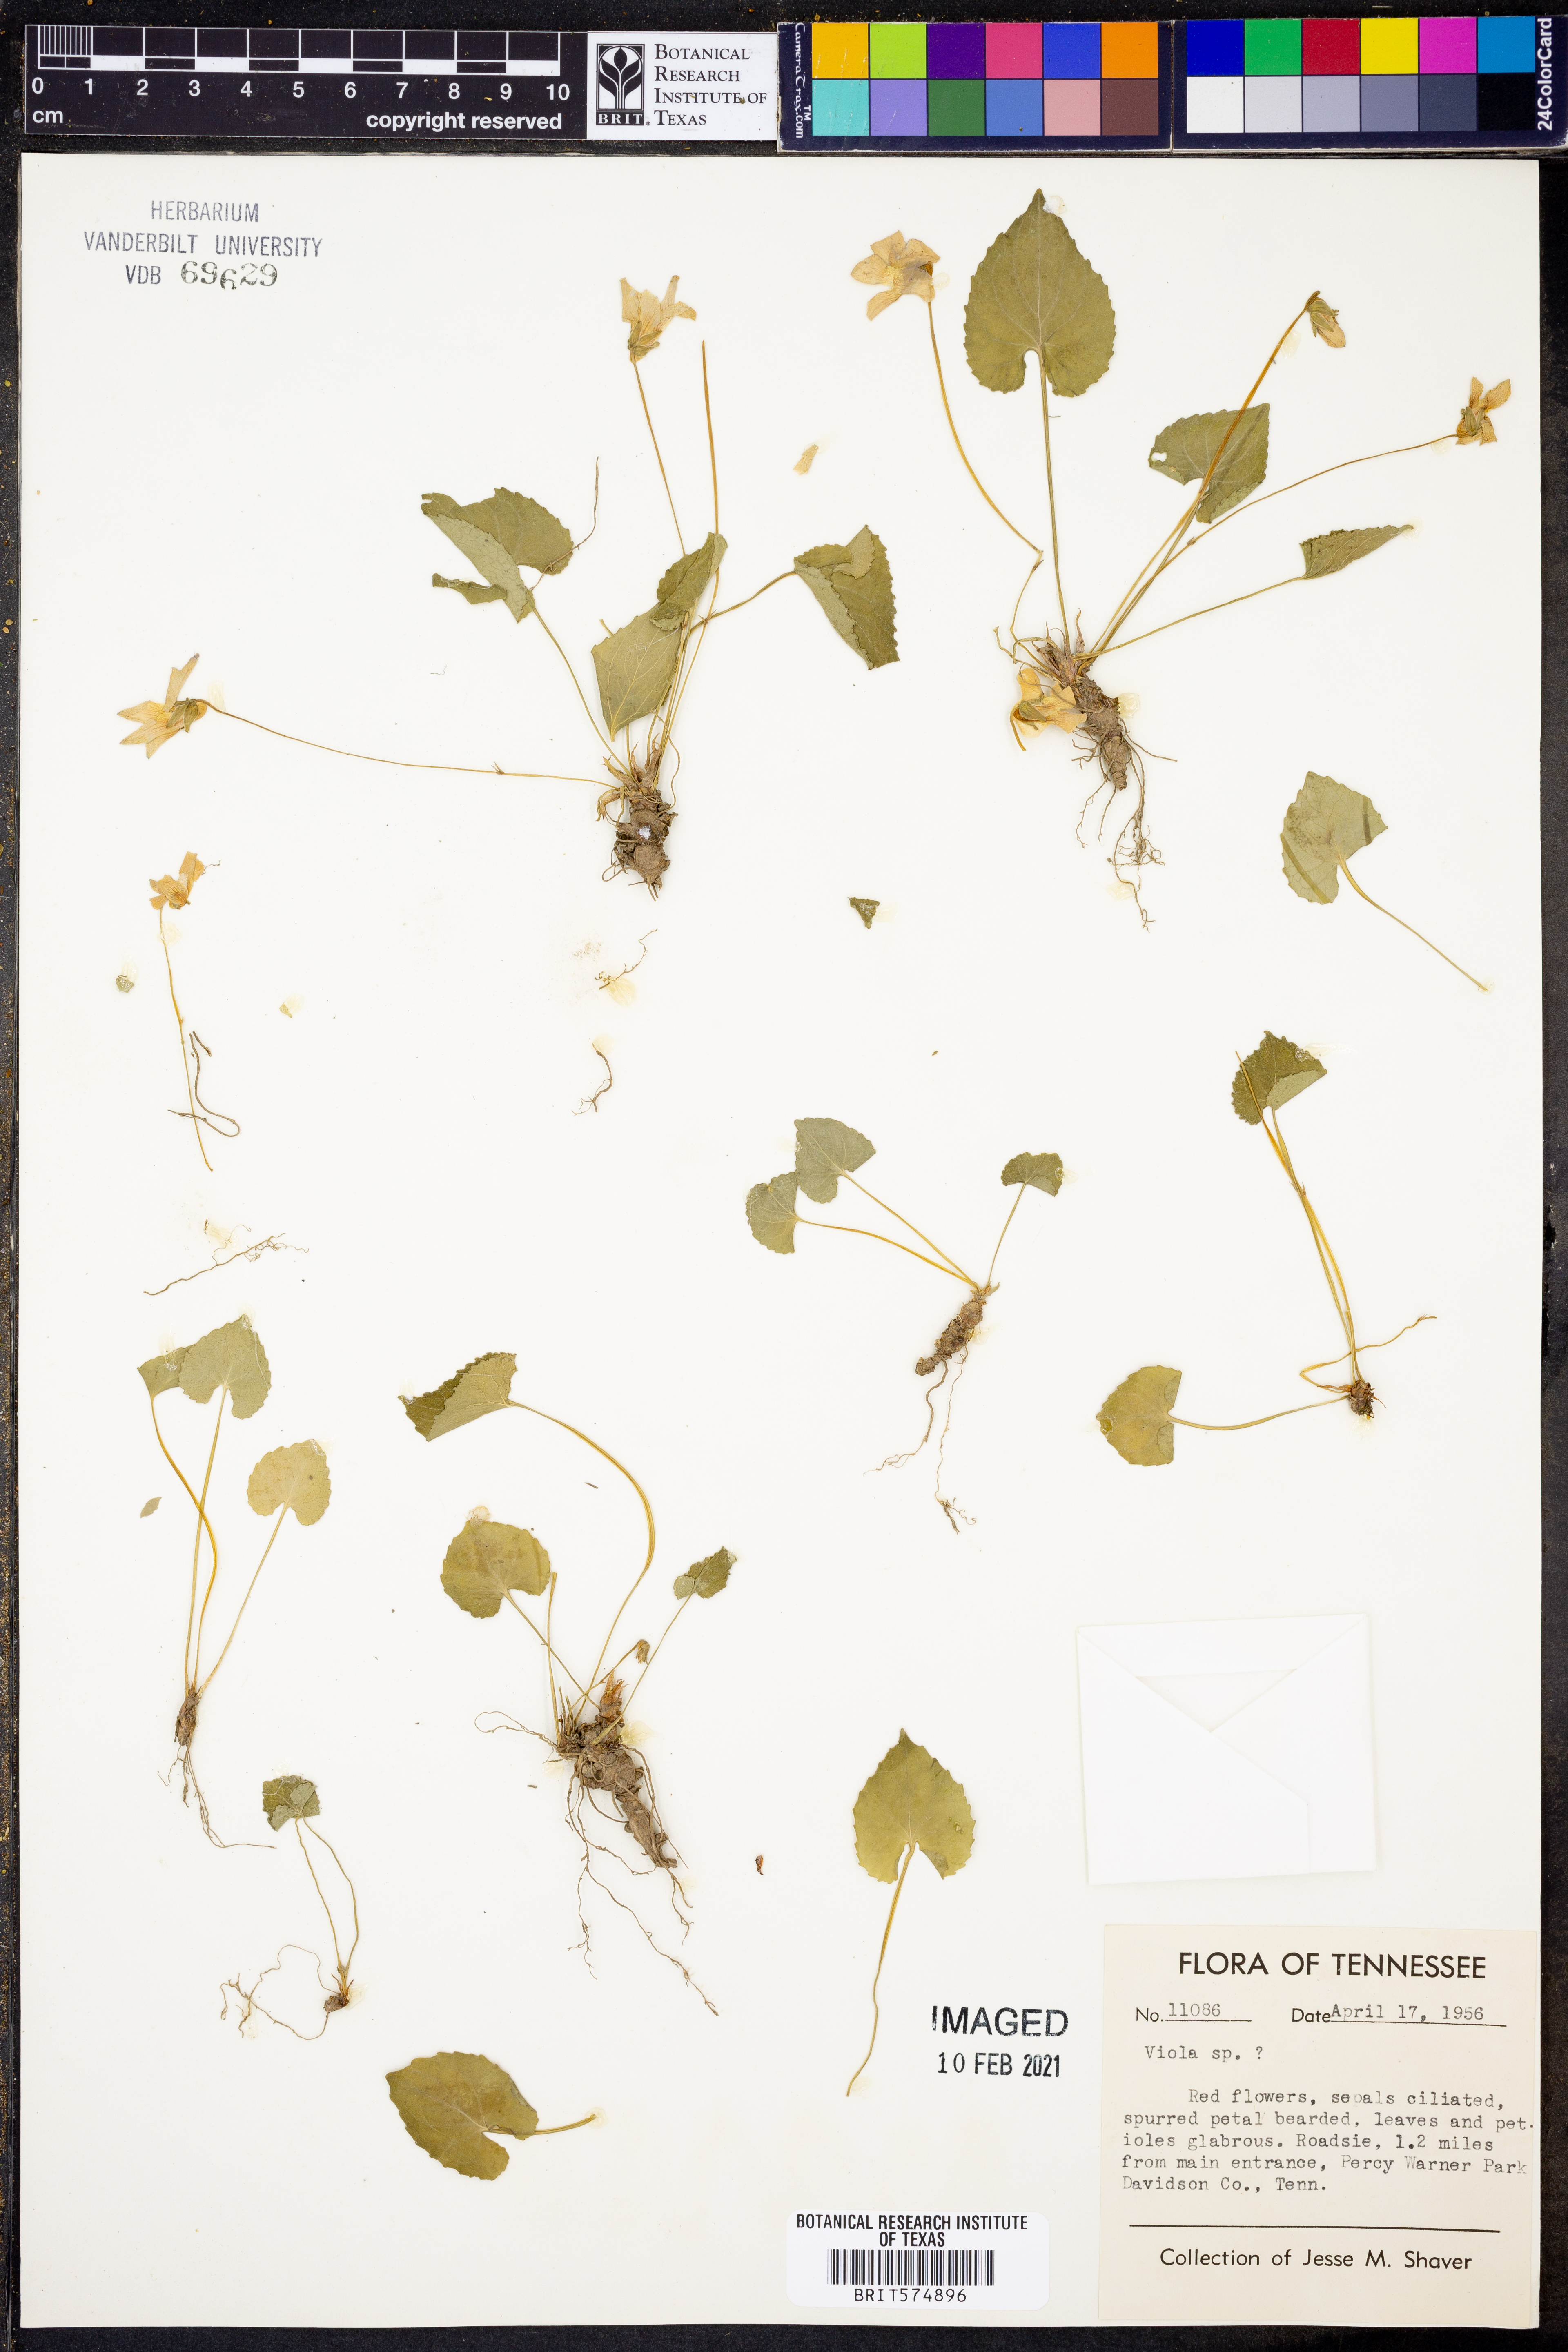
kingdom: Plantae
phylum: Tracheophyta
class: Magnoliopsida
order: Malpighiales
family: Violaceae
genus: Viola
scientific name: Viola
